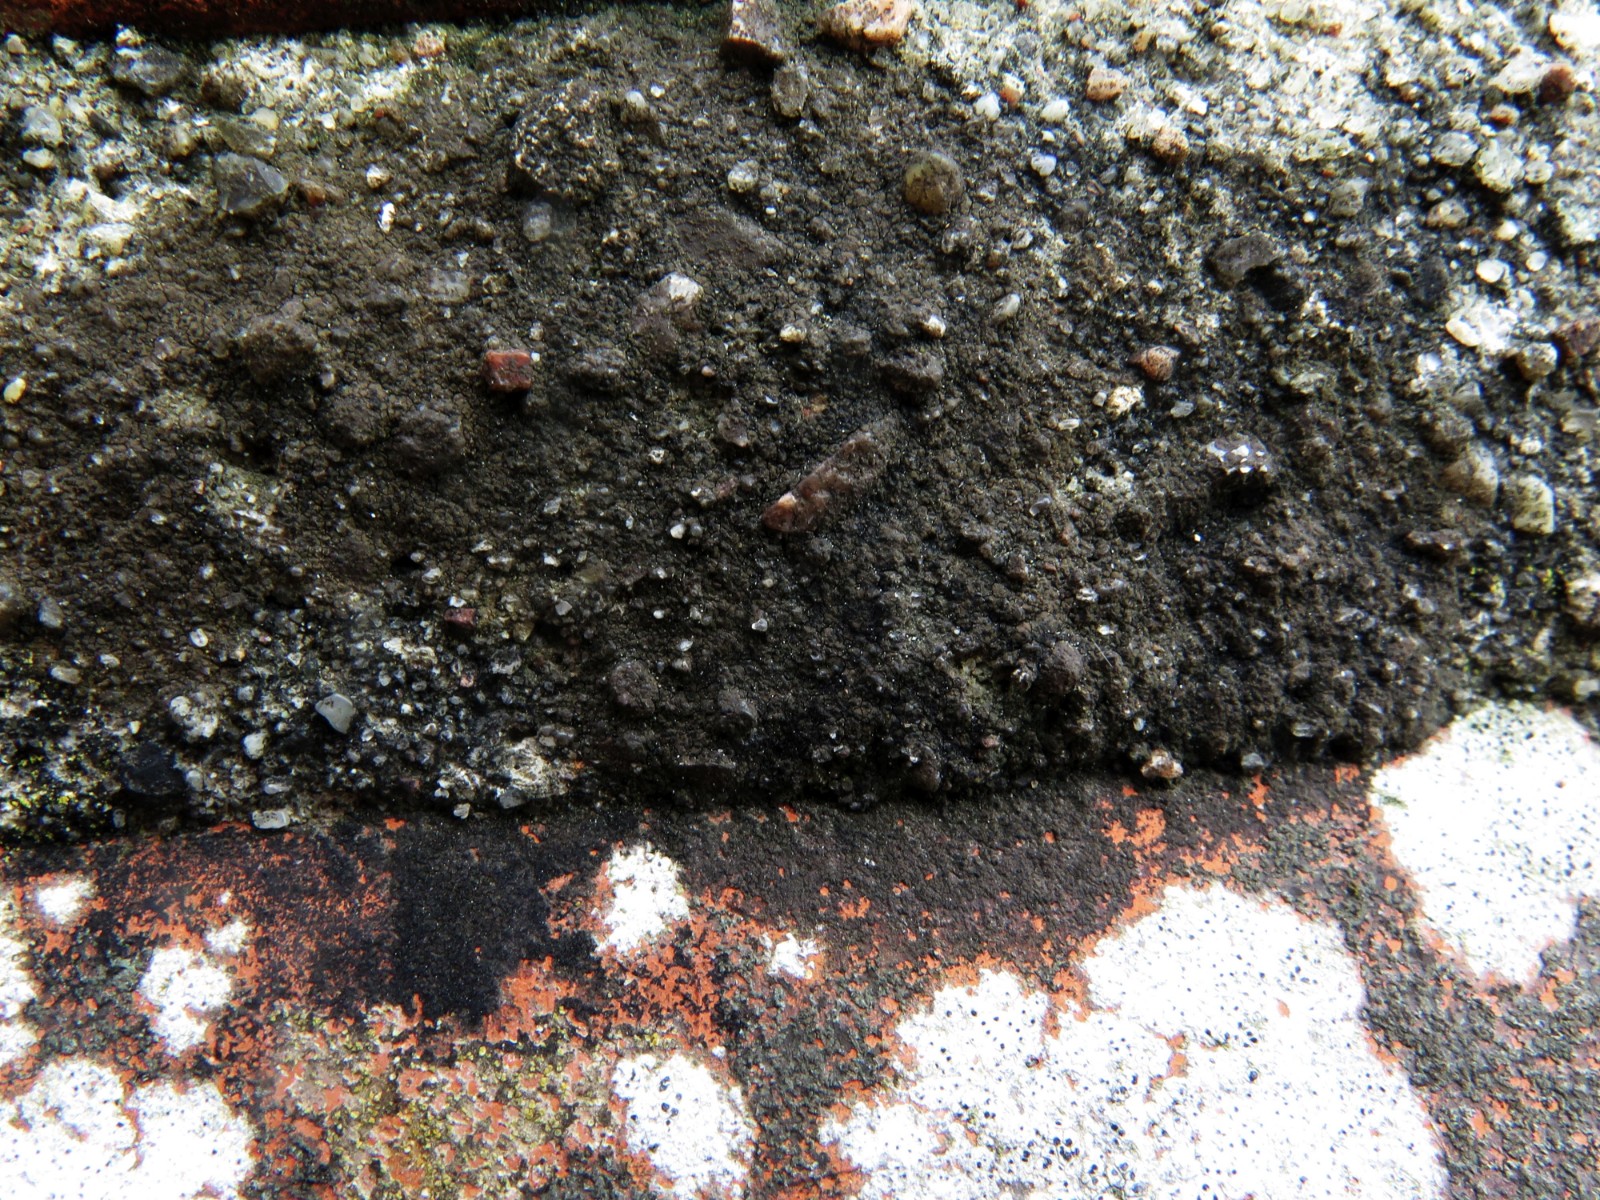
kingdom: Fungi
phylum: Ascomycota
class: Eurotiomycetes
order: Verrucariales
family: Verrucariaceae
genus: Verrucaria
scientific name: Verrucaria nigrescens
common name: sortbrun vortelav
